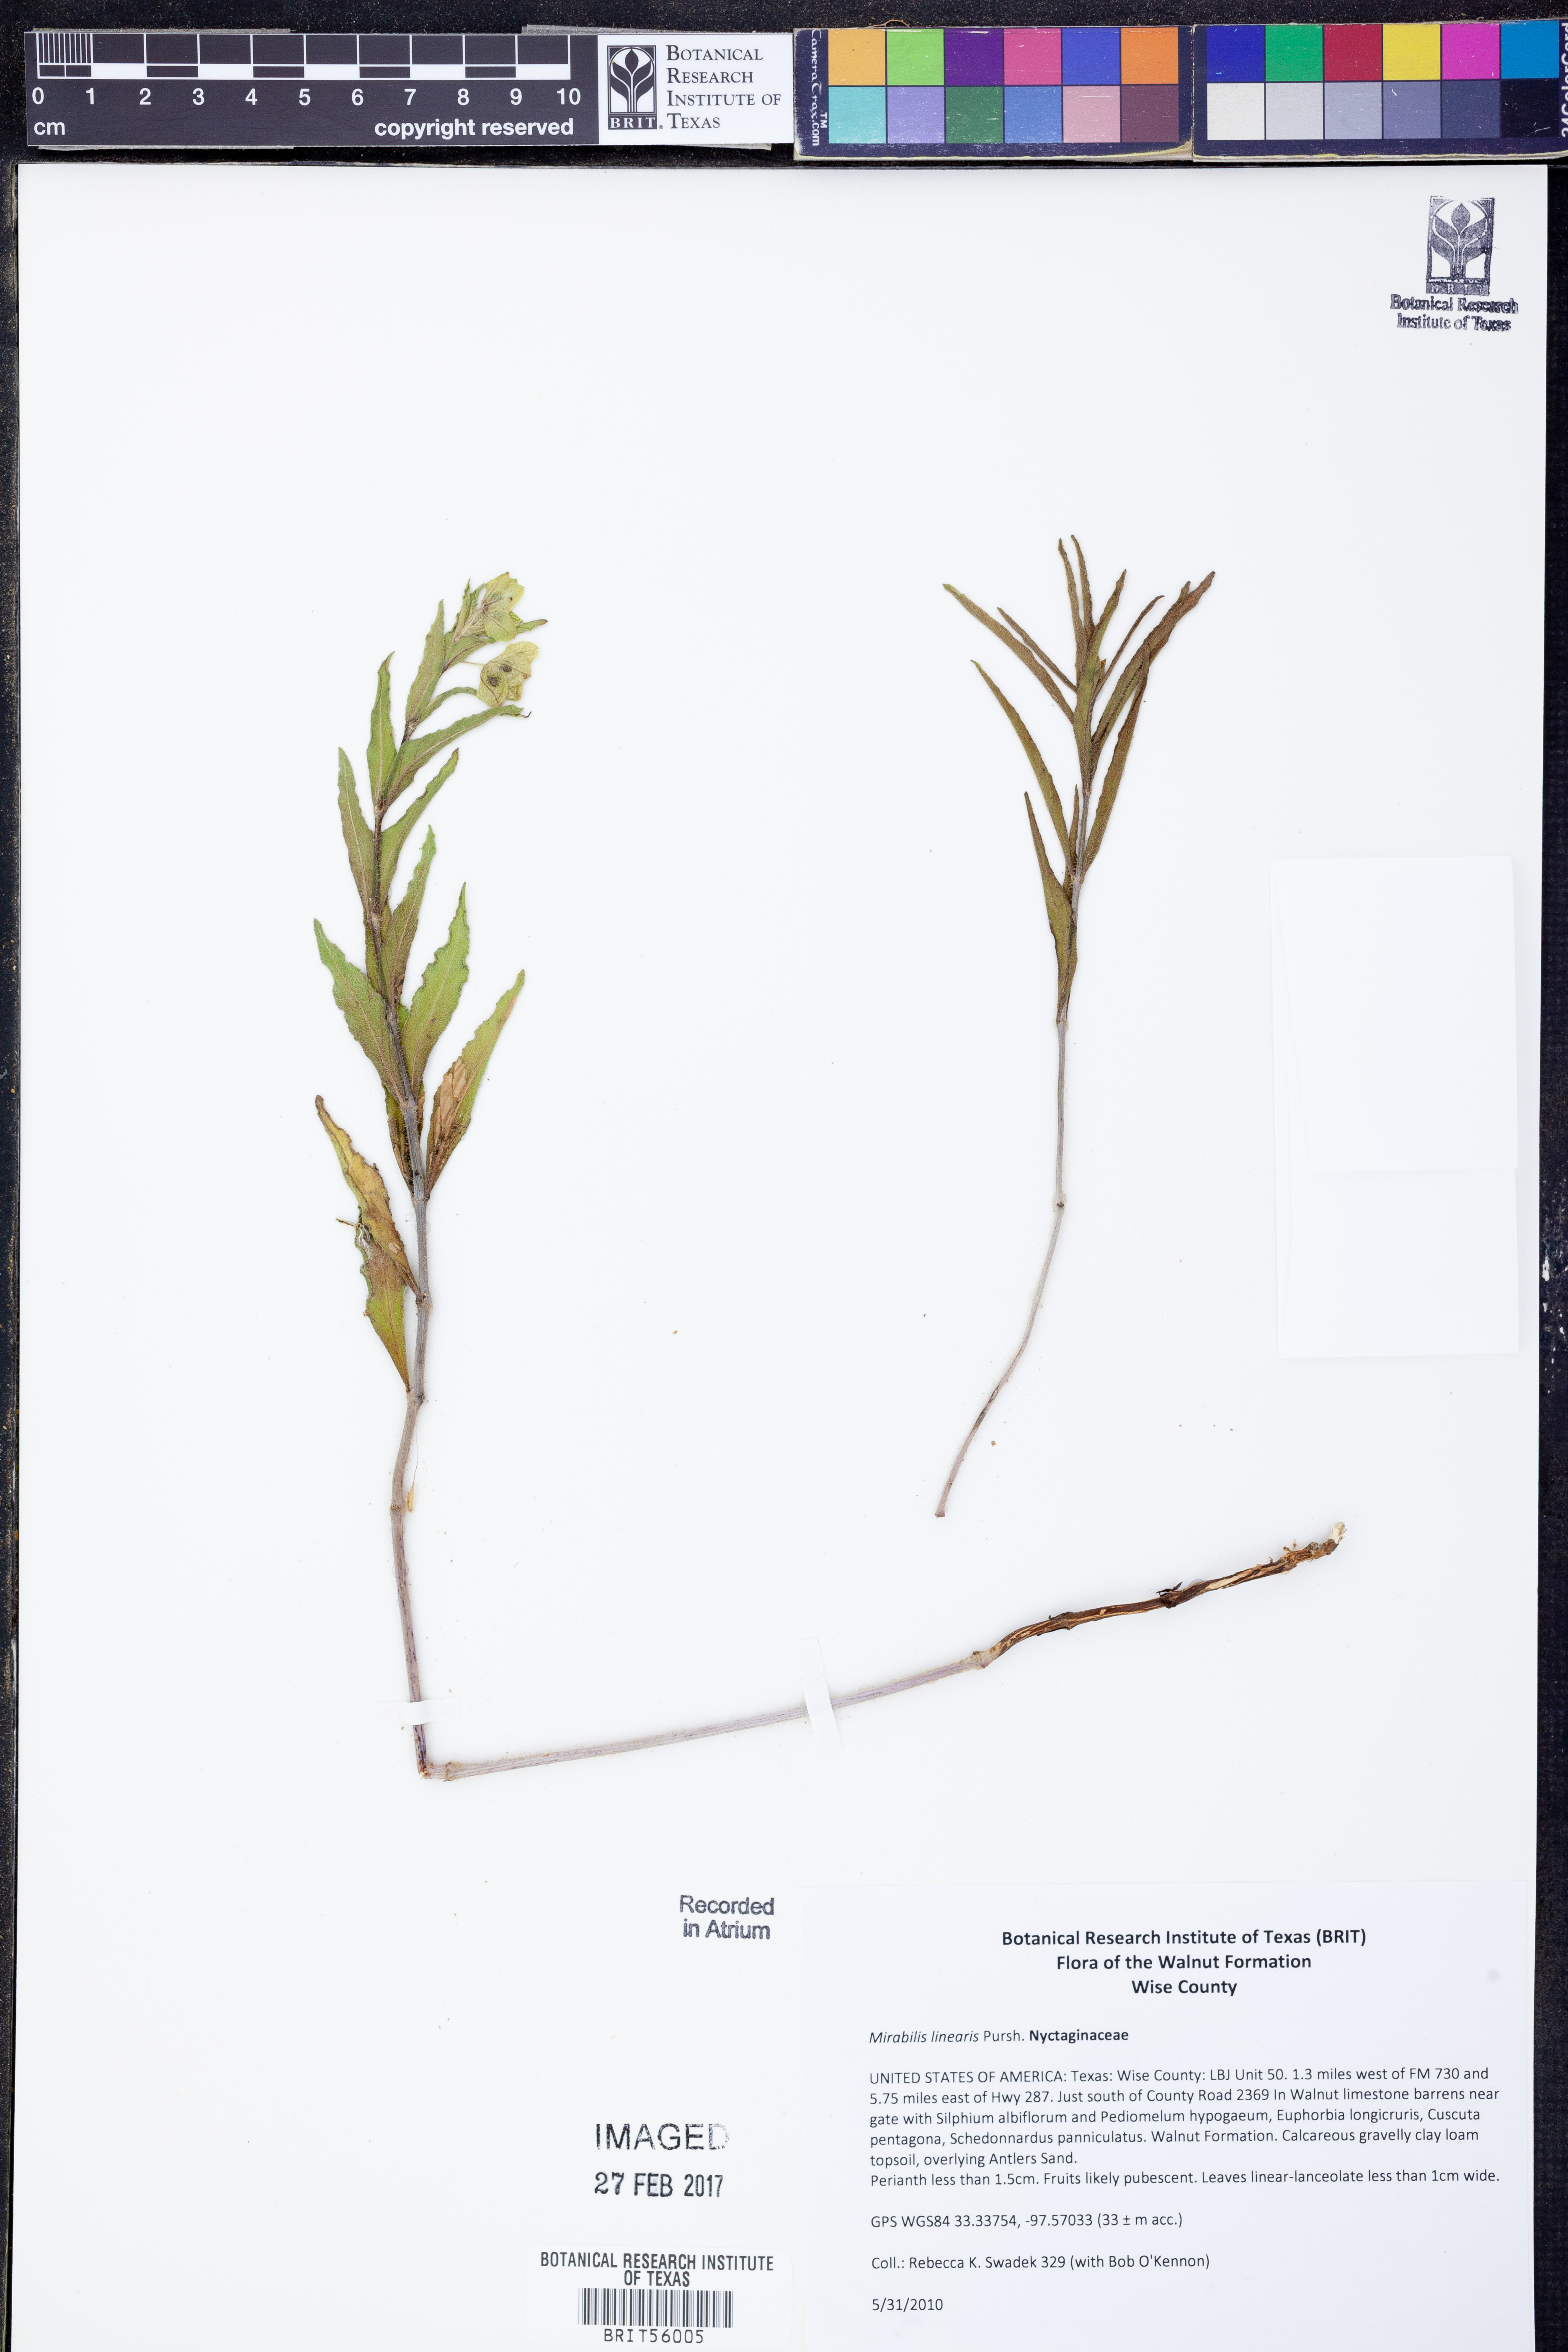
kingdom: Plantae
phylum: Tracheophyta
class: Magnoliopsida
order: Caryophyllales
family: Nyctaginaceae
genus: Mirabilis
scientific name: Mirabilis linearis
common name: Linear-leaved four-o'clock
